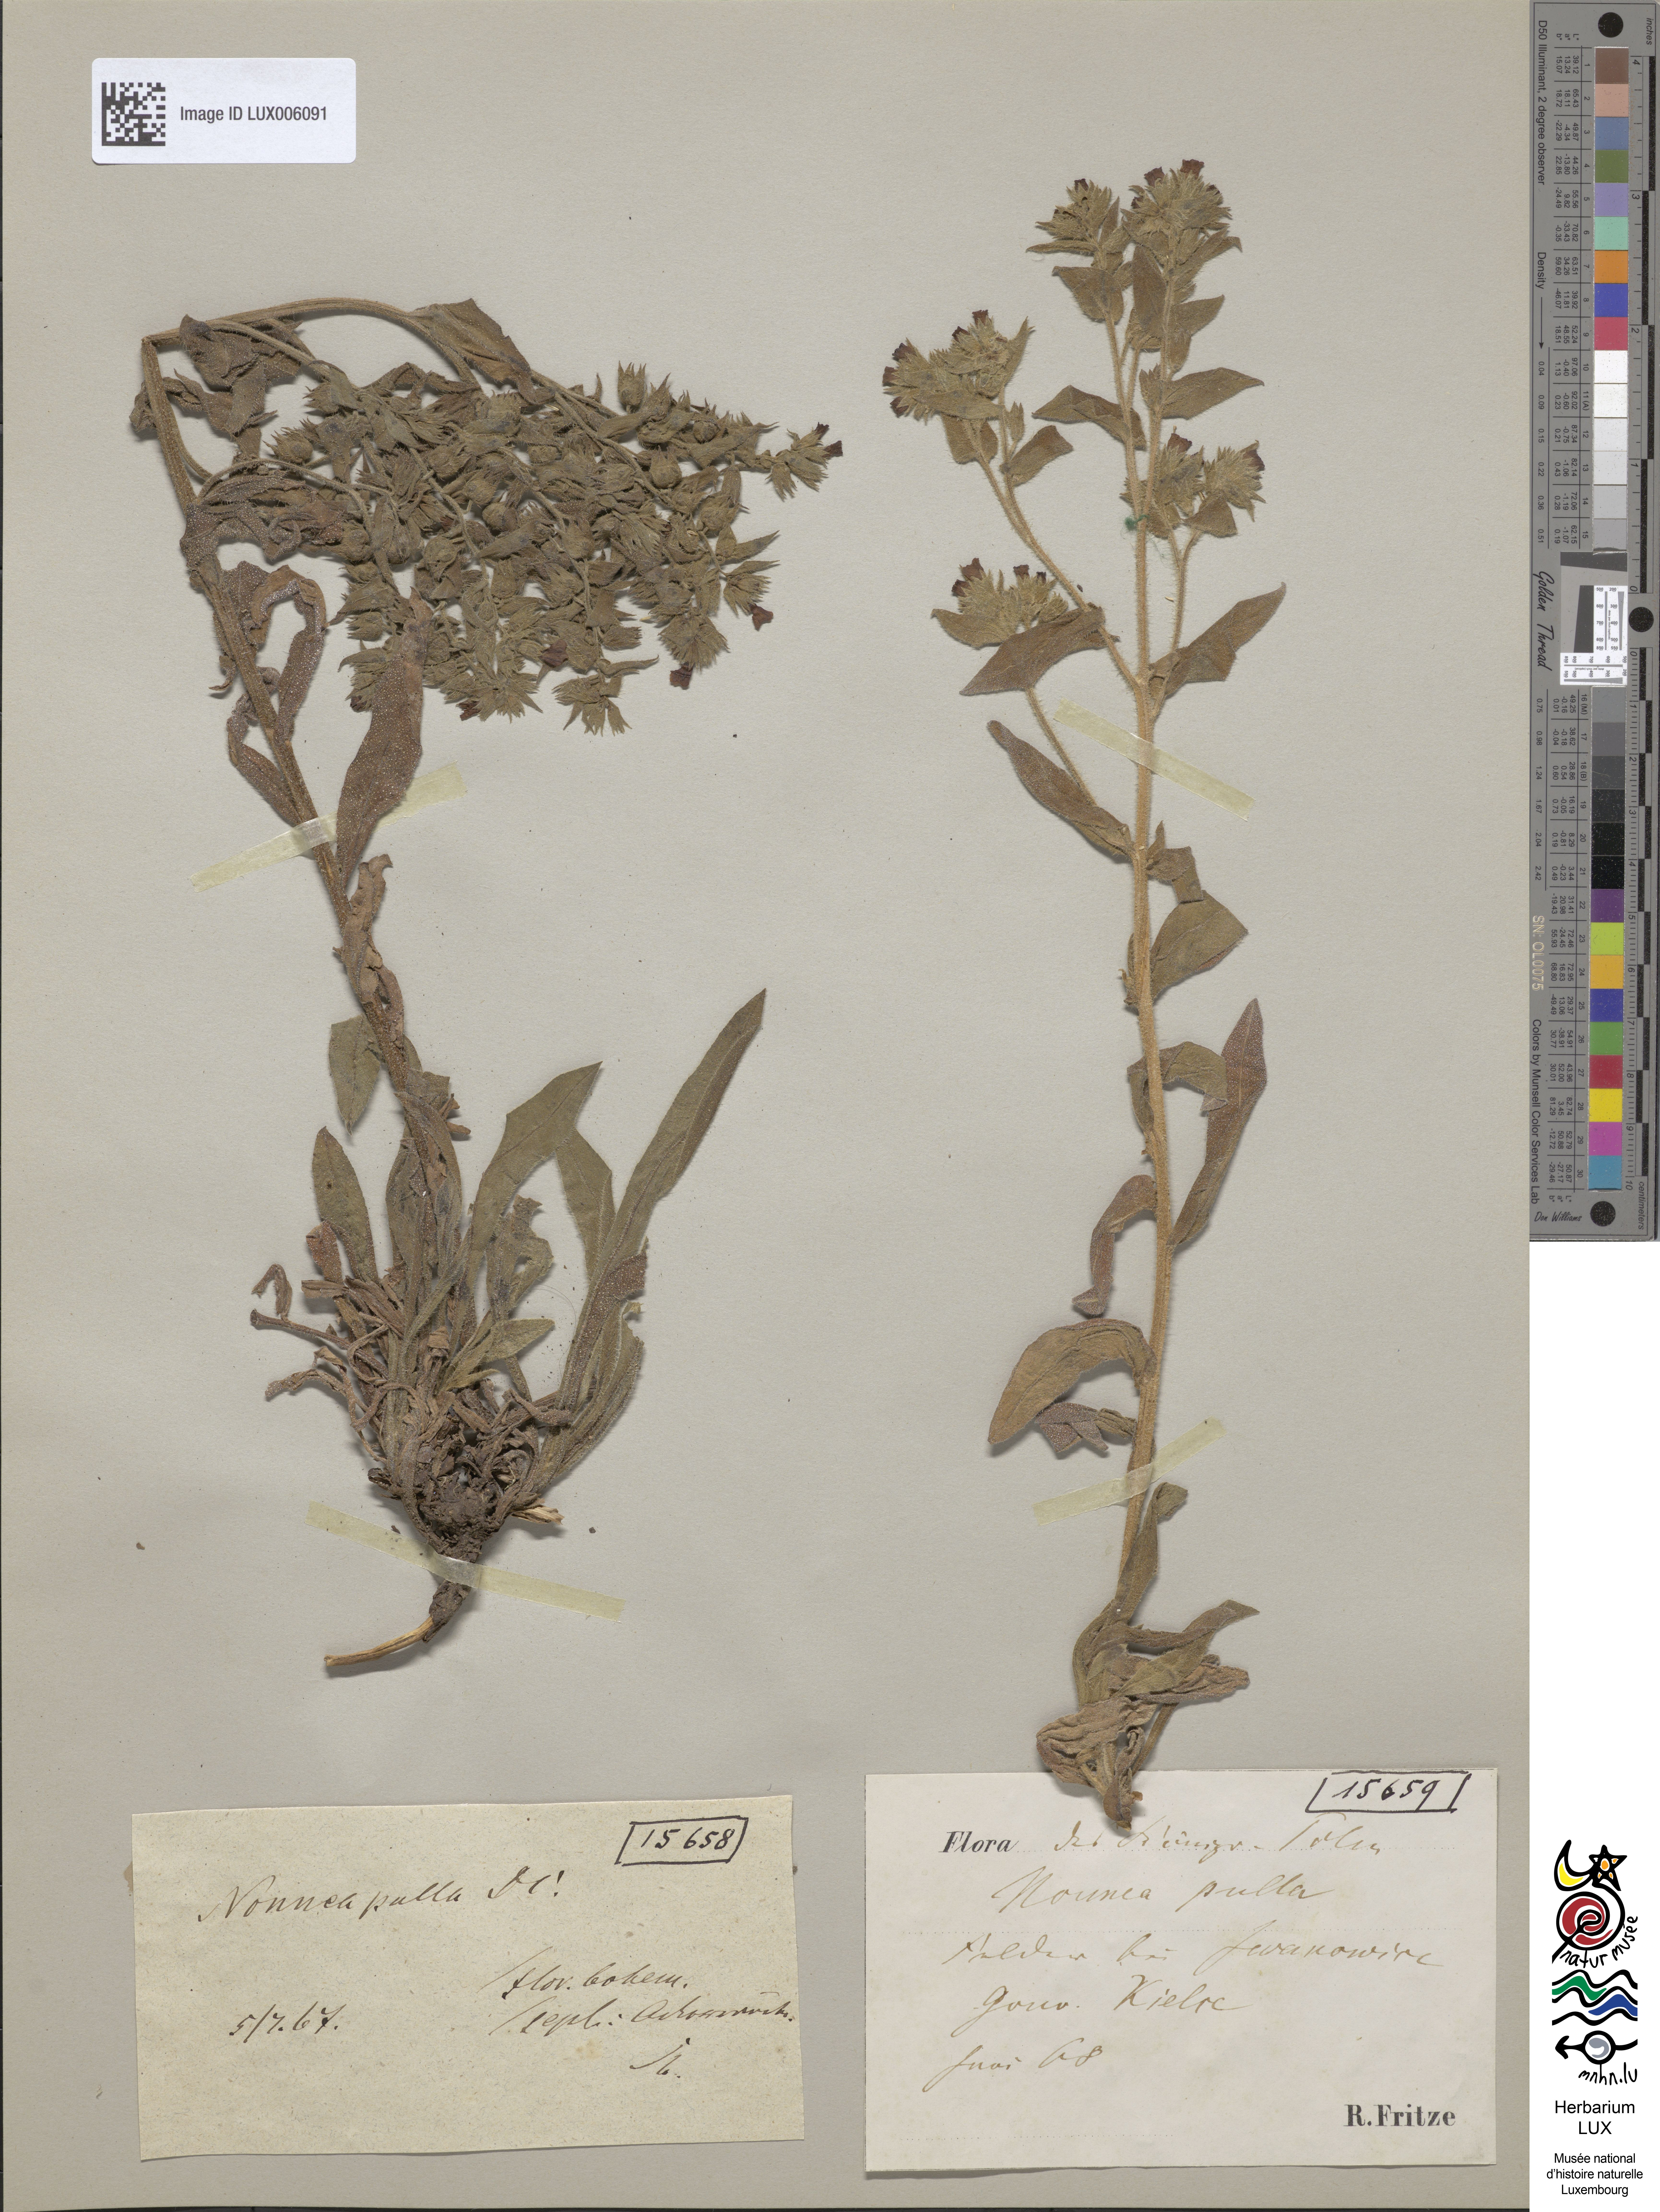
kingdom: Plantae
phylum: Tracheophyta
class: Magnoliopsida
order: Boraginales
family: Boraginaceae
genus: Nonea
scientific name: Nonea pulla
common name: Brown nonea
